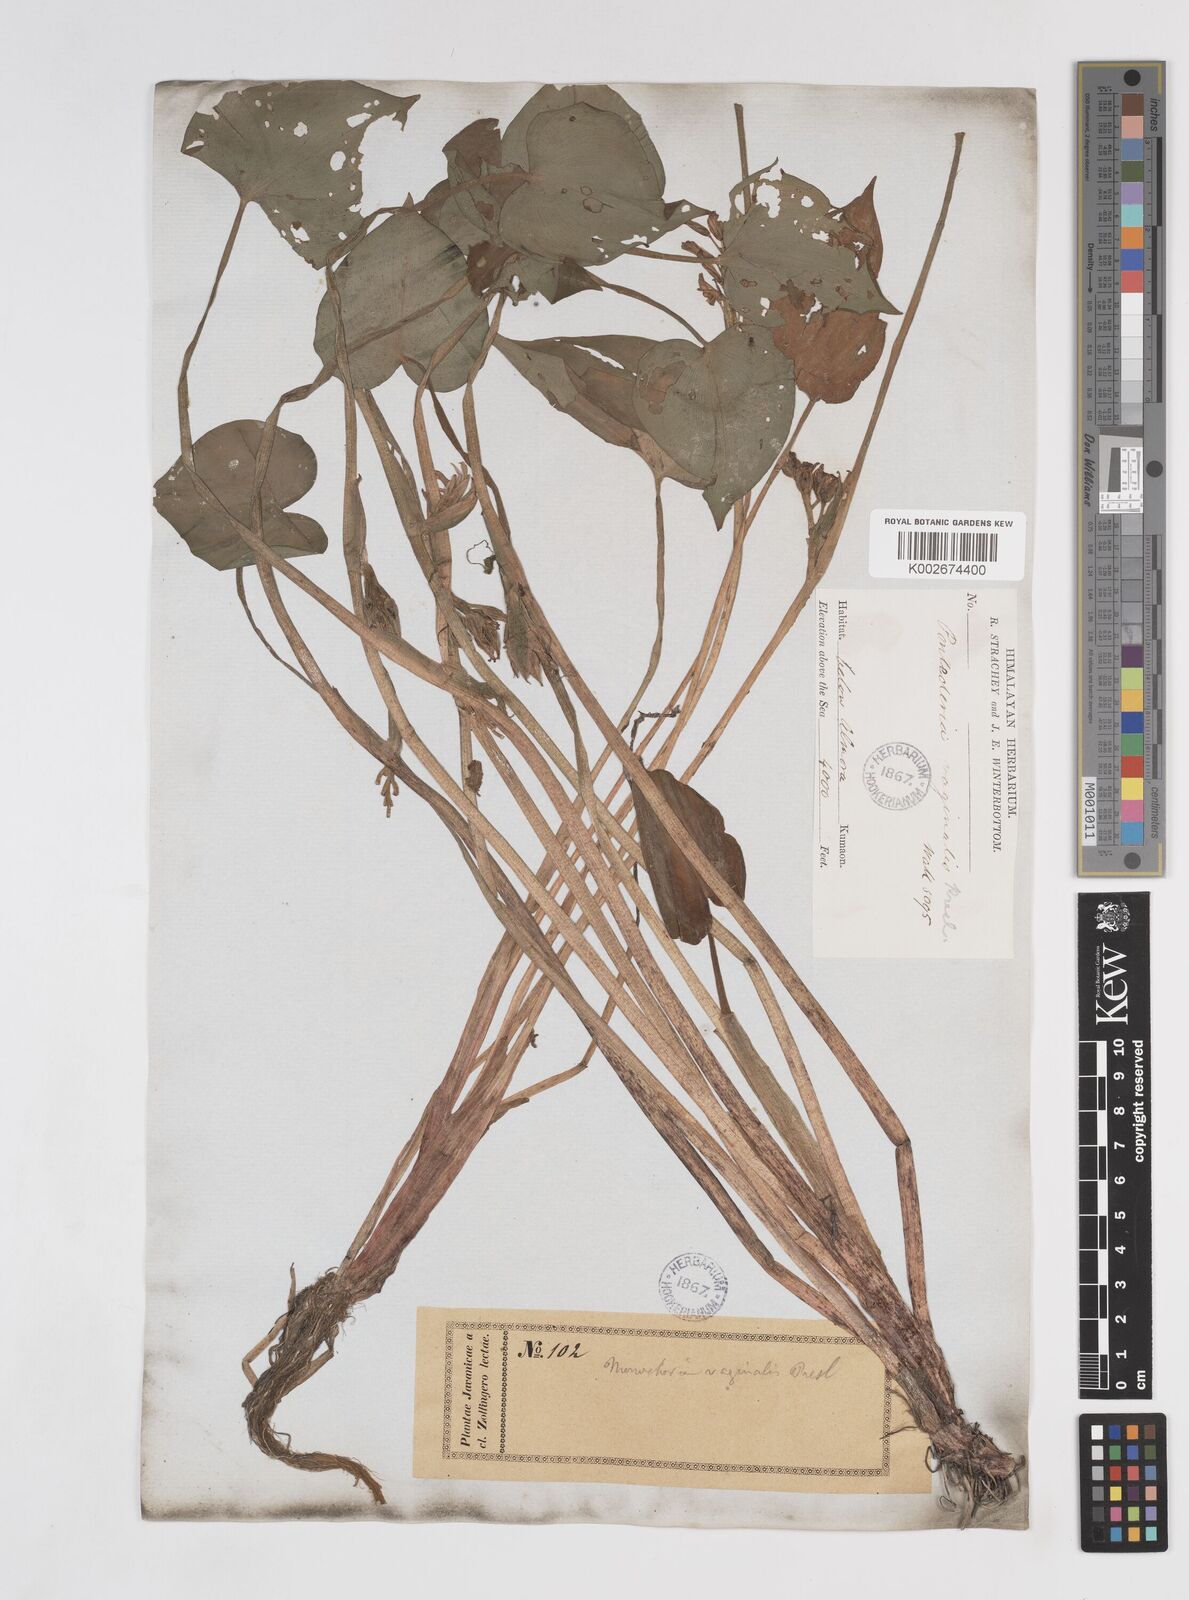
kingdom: Plantae
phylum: Tracheophyta
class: Liliopsida
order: Commelinales
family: Pontederiaceae
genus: Pontederia
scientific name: Pontederia vaginalis
